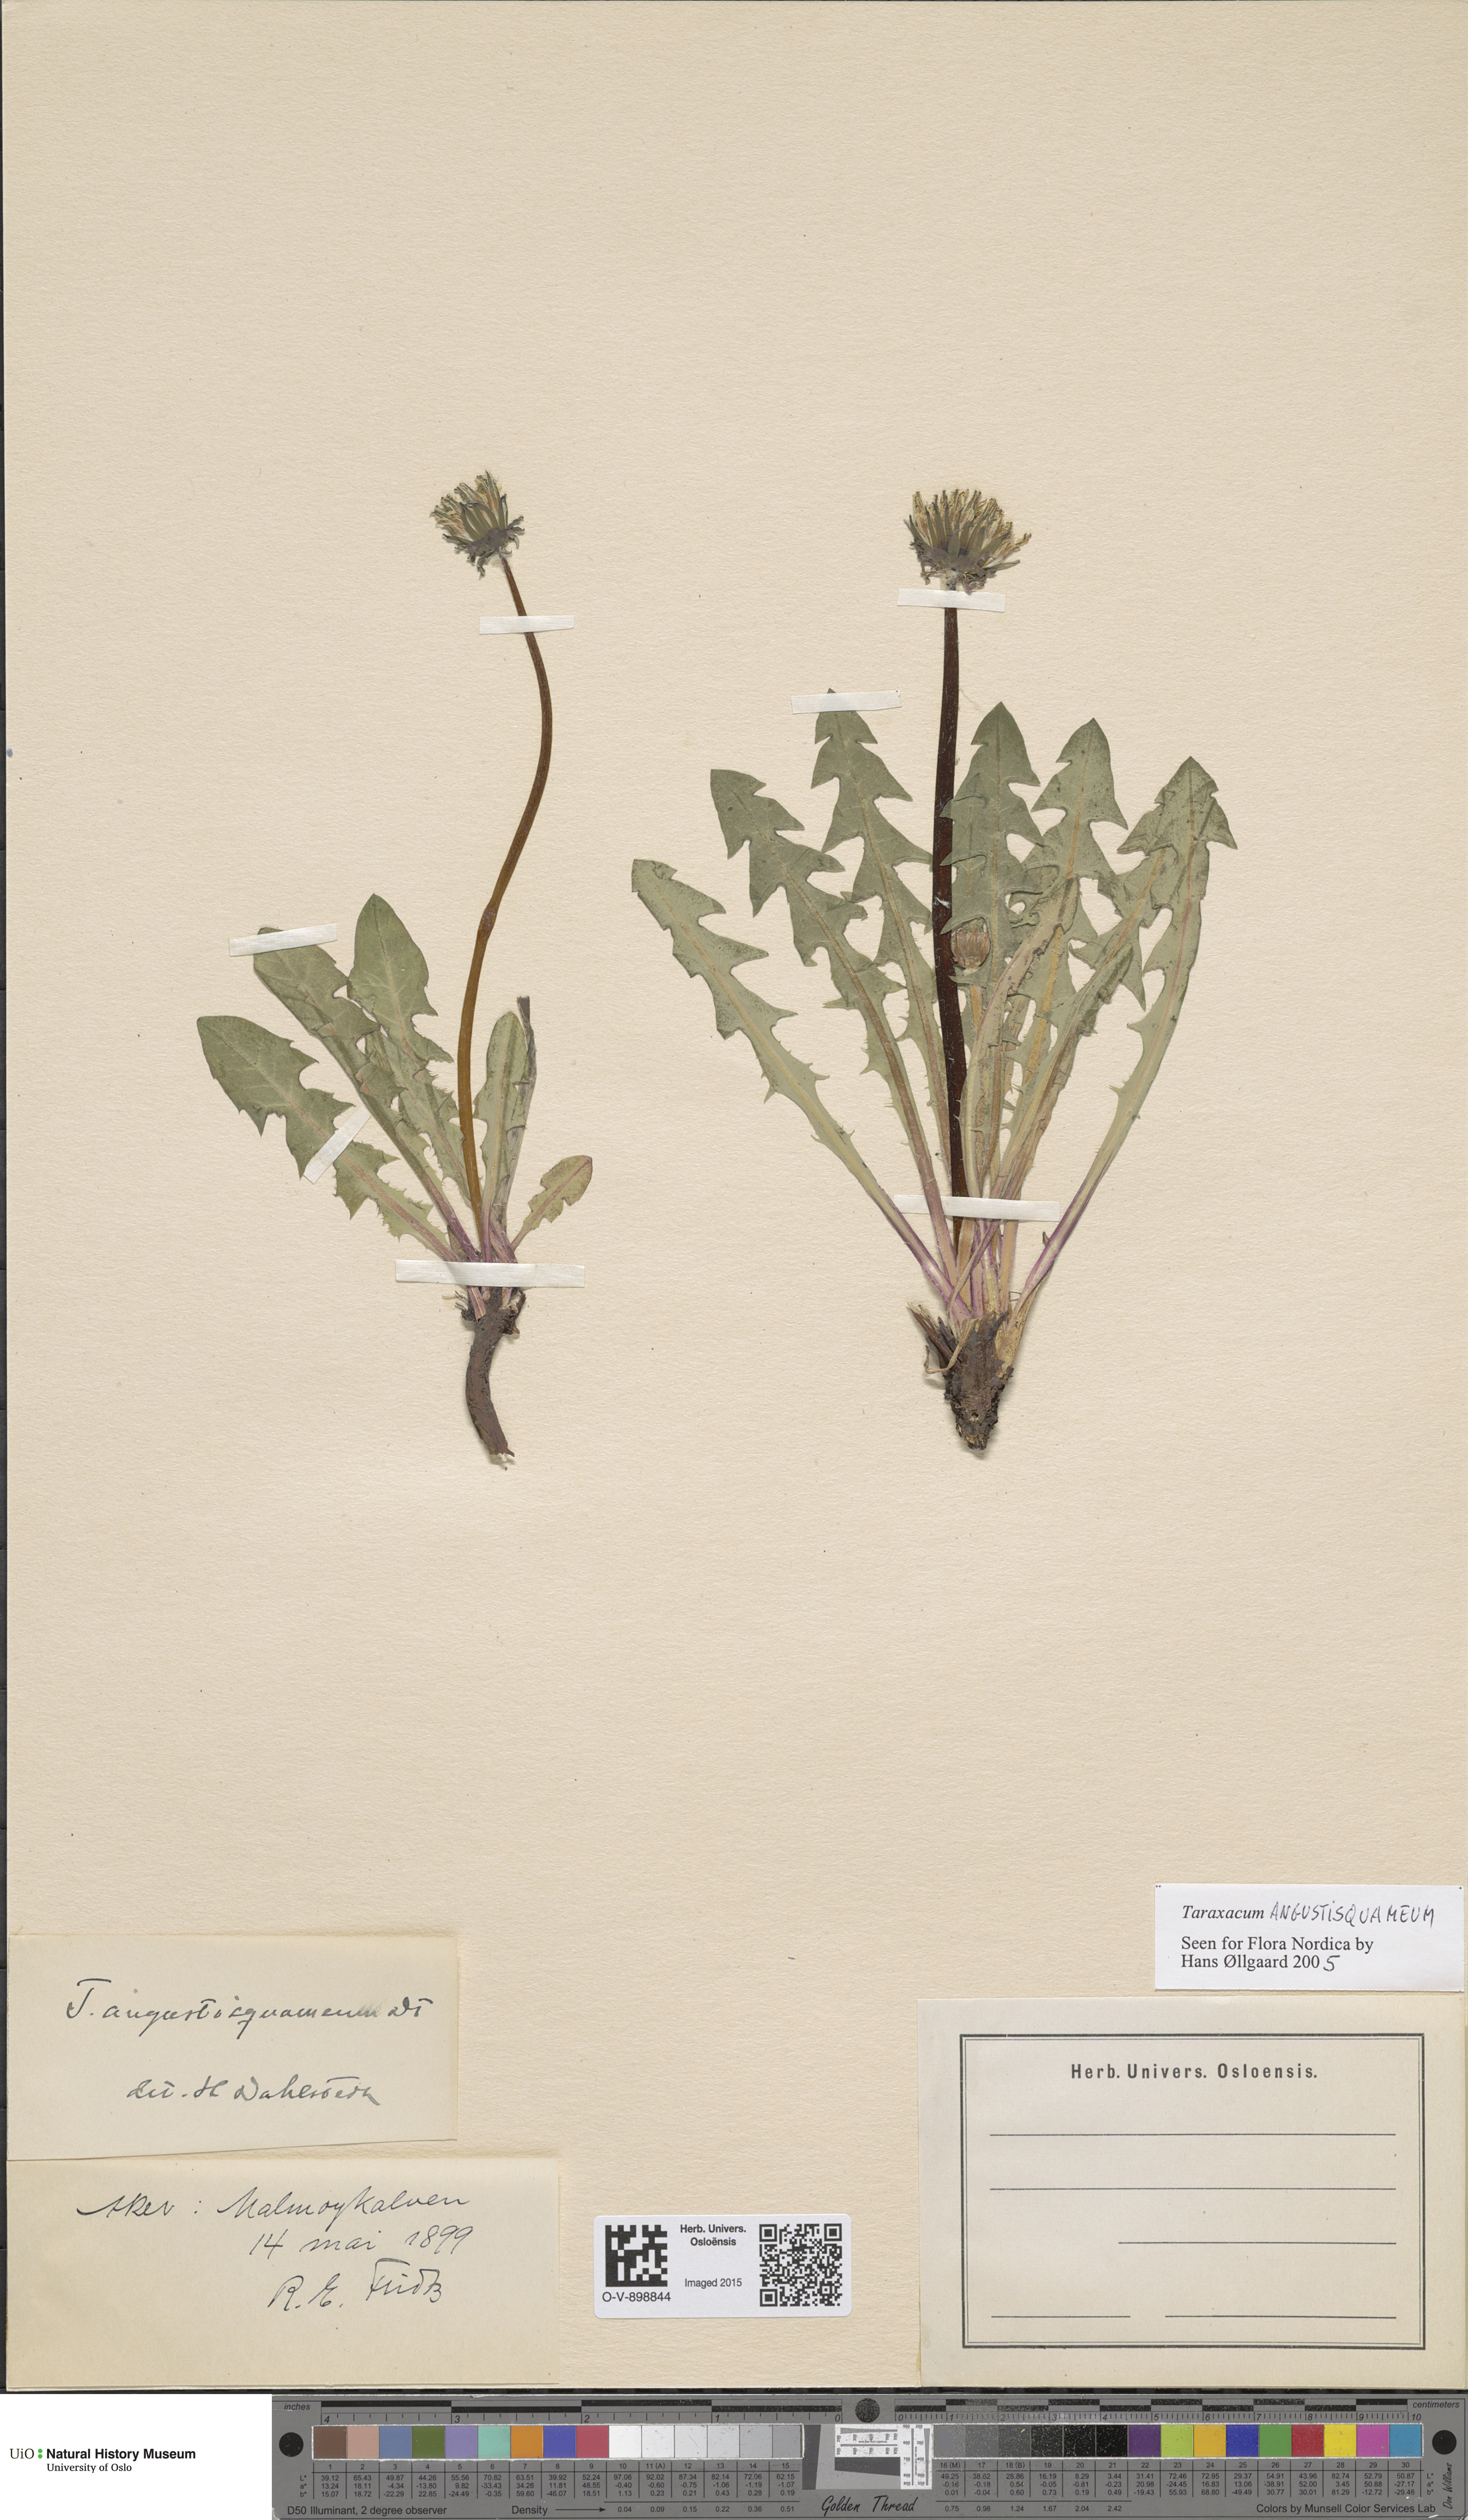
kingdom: Plantae
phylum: Tracheophyta
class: Magnoliopsida
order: Asterales
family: Asteraceae
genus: Taraxacum
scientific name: Taraxacum angustisquameum
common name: Multilobed dandelion
